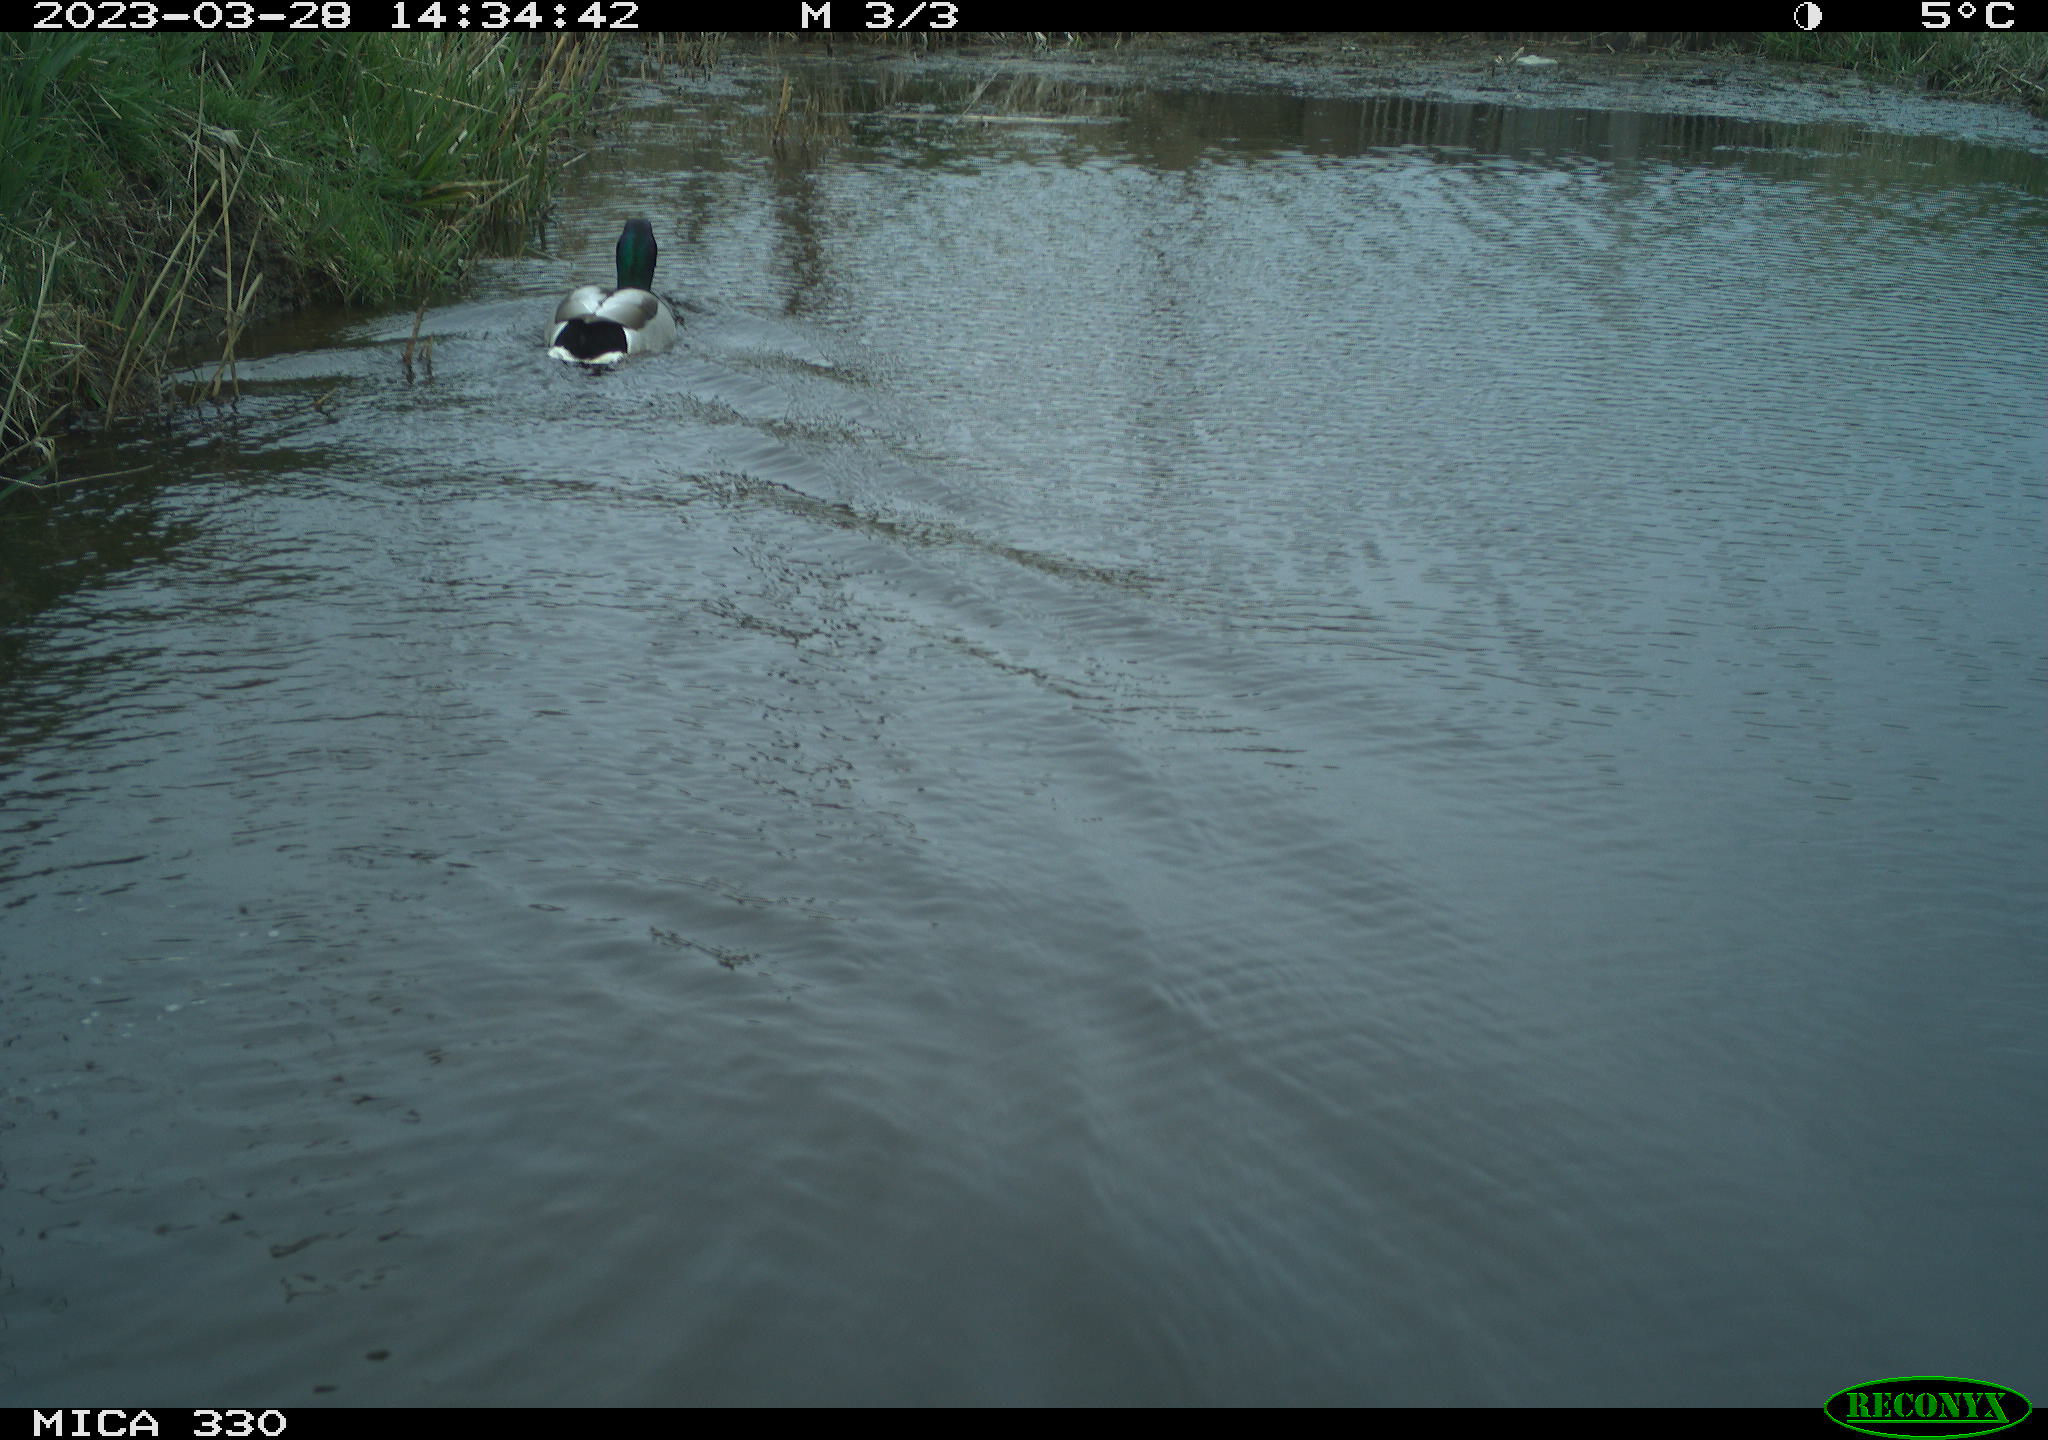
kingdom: Animalia
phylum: Chordata
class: Aves
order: Anseriformes
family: Anatidae
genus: Anas
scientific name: Anas
